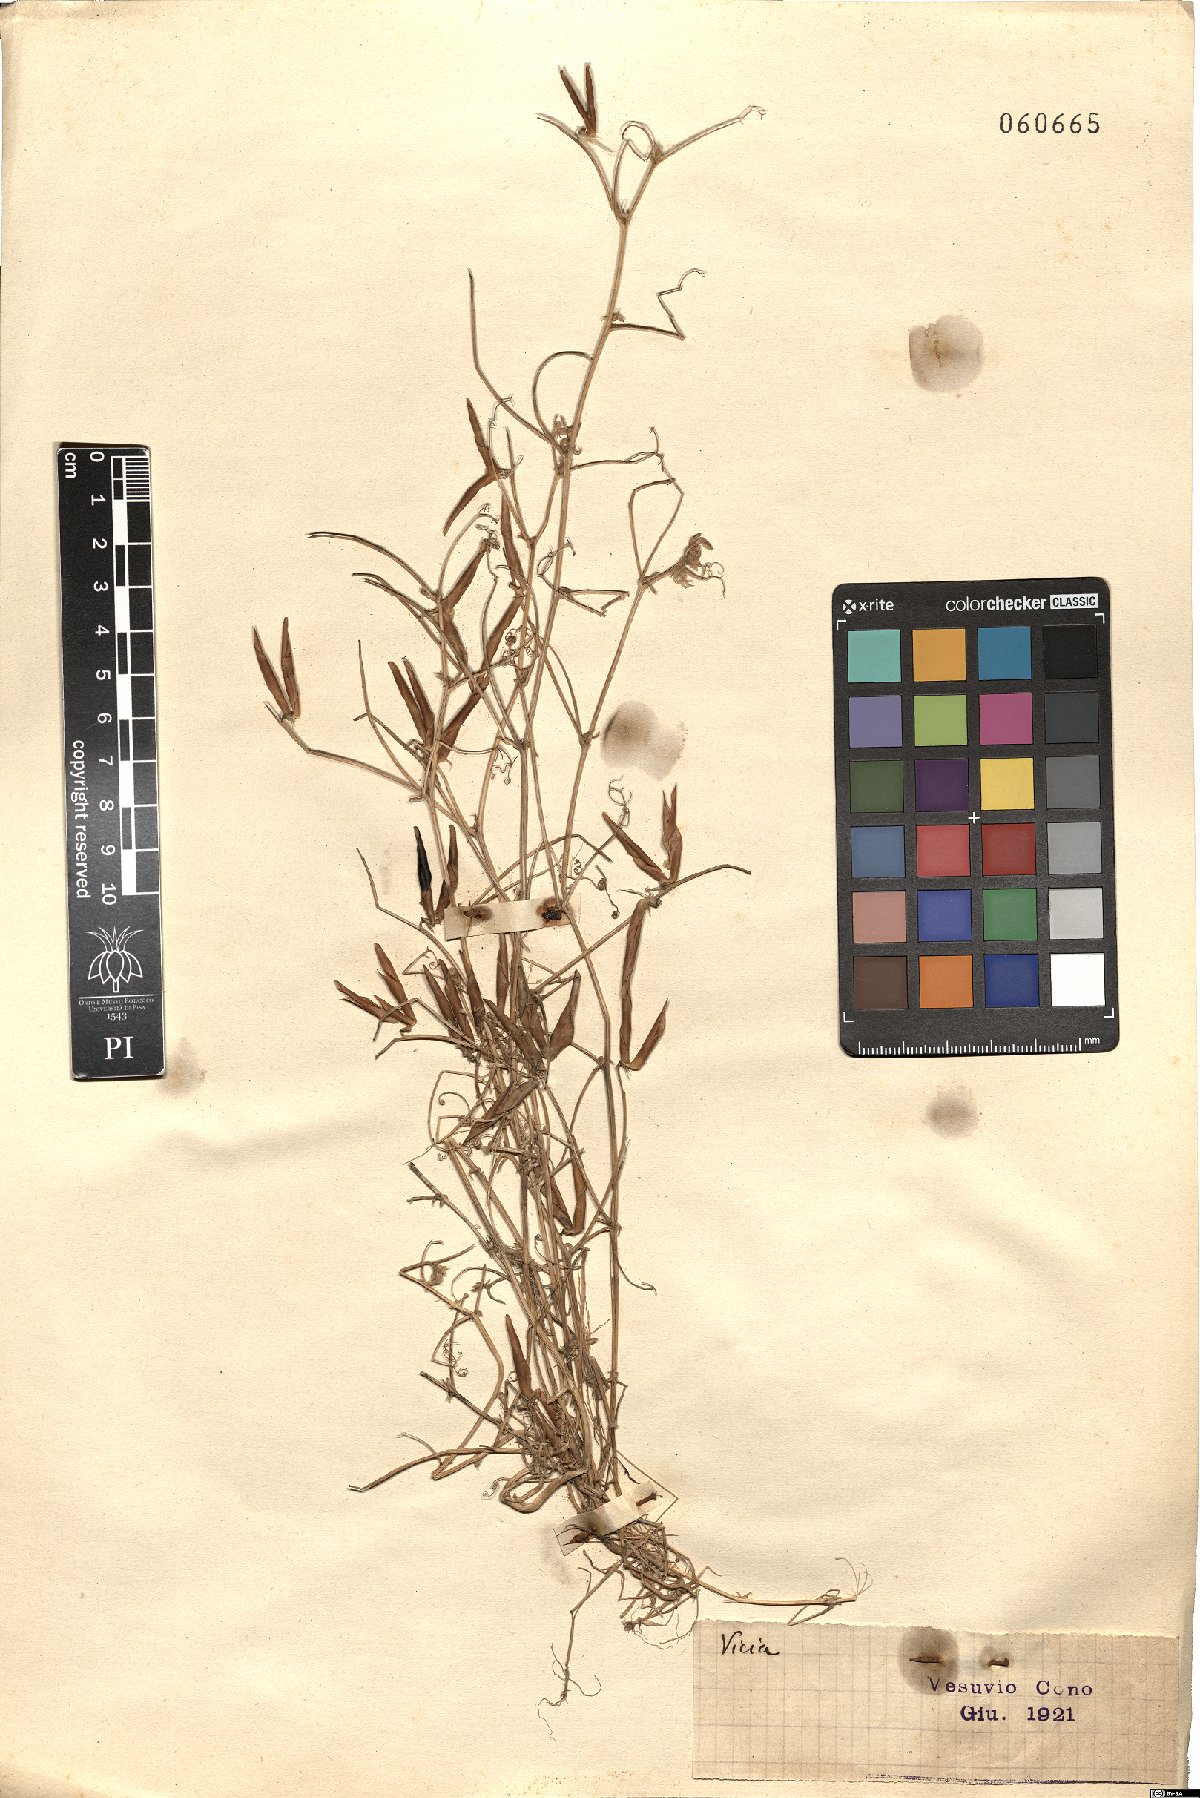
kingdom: Plantae
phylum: Tracheophyta
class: Magnoliopsida
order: Fabales
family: Fabaceae
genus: Vicia
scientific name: Vicia
